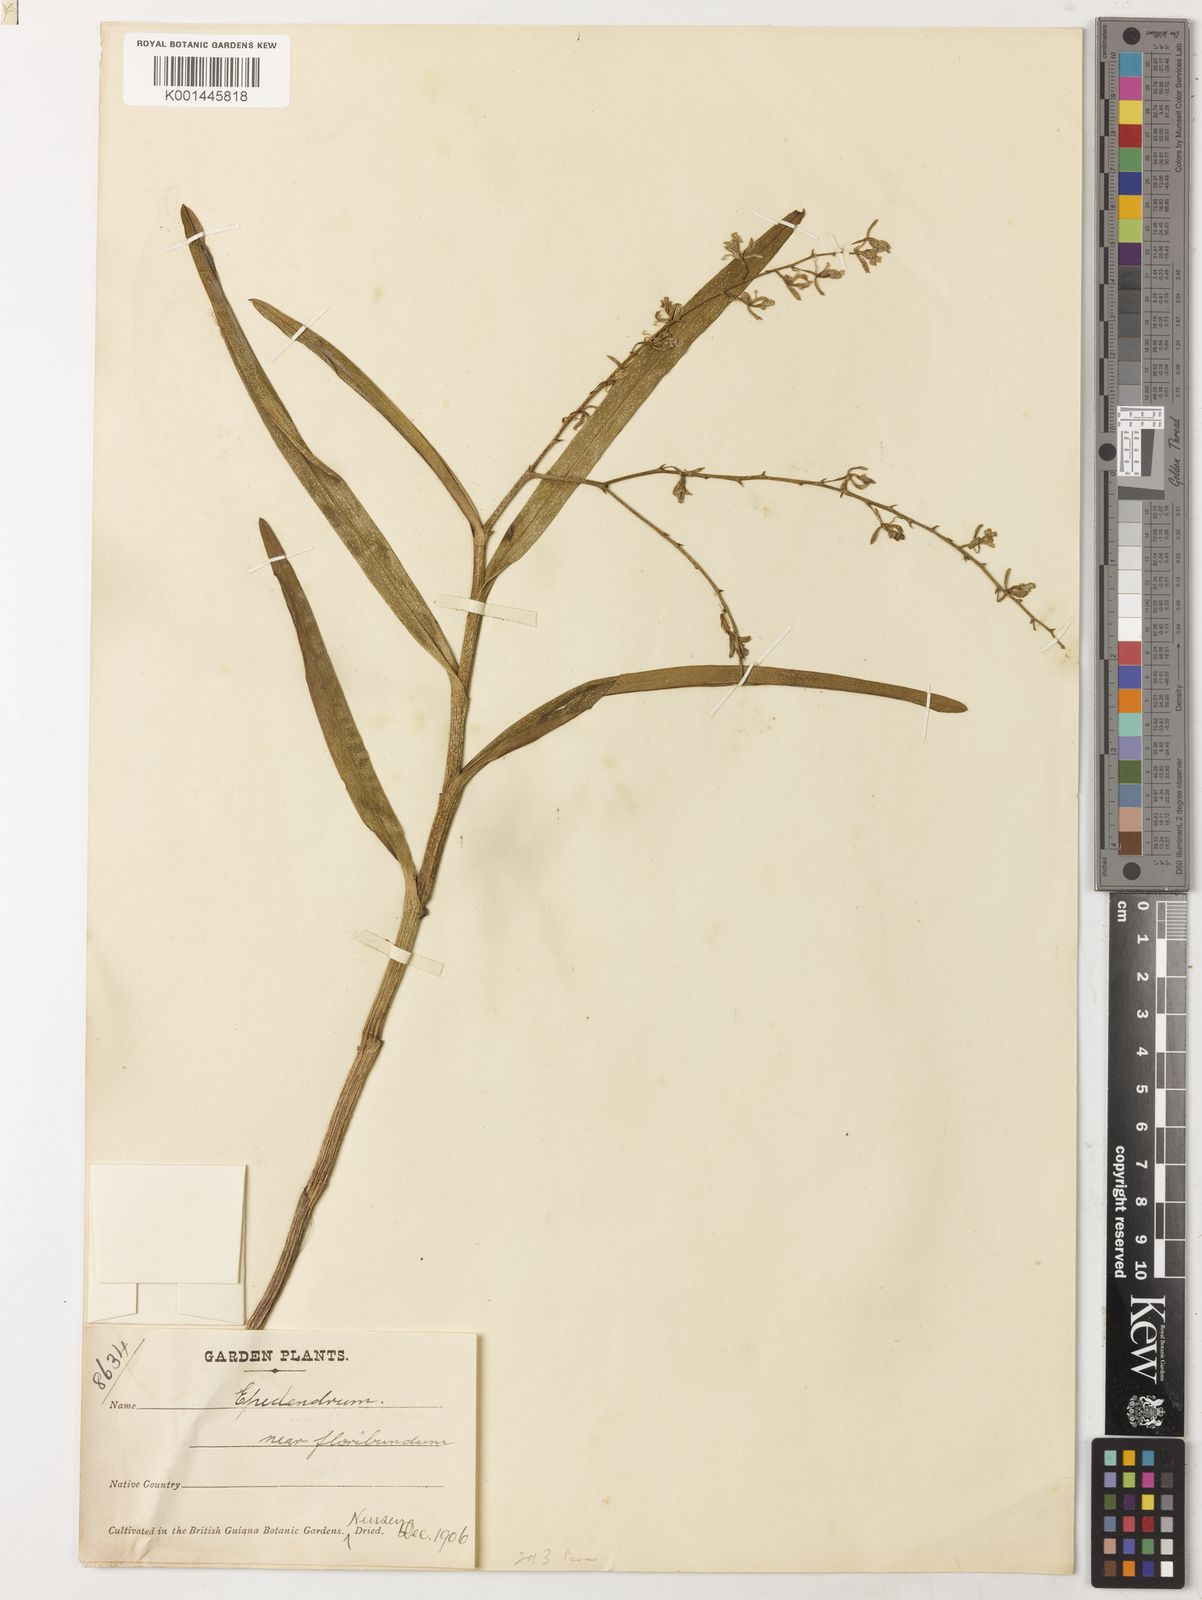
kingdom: Plantae
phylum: Tracheophyta
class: Liliopsida
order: Asparagales
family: Orchidaceae
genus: Epidendrum
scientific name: Epidendrum purum
